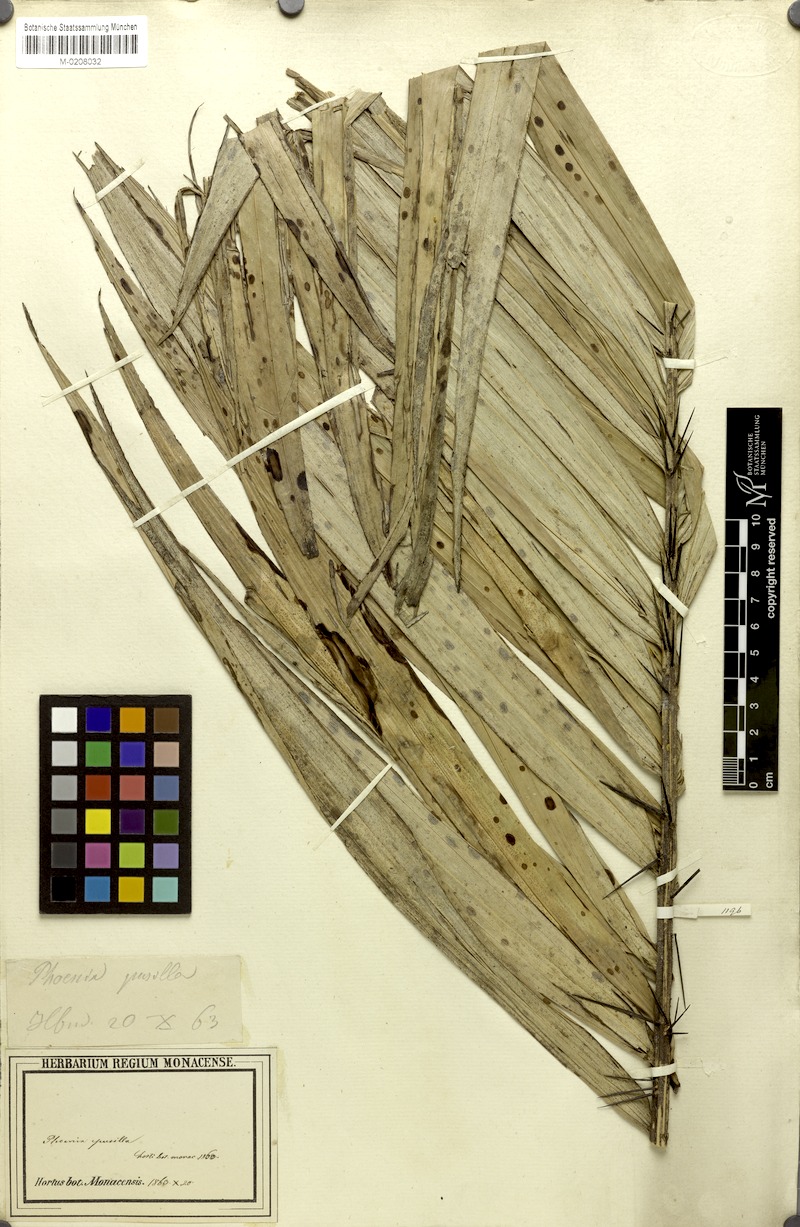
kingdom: Plantae
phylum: Tracheophyta
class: Liliopsida
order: Arecales
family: Arecaceae
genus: Phoenix
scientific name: Phoenix pusilla
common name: Flour palm
